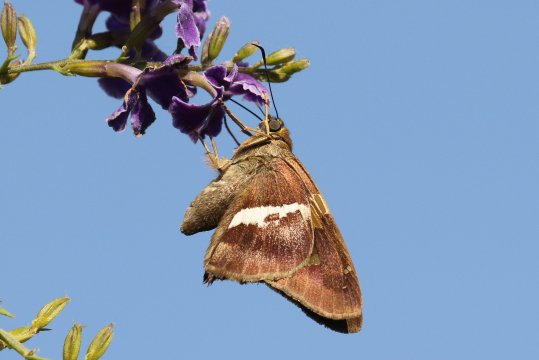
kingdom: Animalia
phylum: Arthropoda
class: Insecta
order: Lepidoptera
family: Hesperiidae
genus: Aguna
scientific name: Aguna asander
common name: Gold-spotted Aguna
